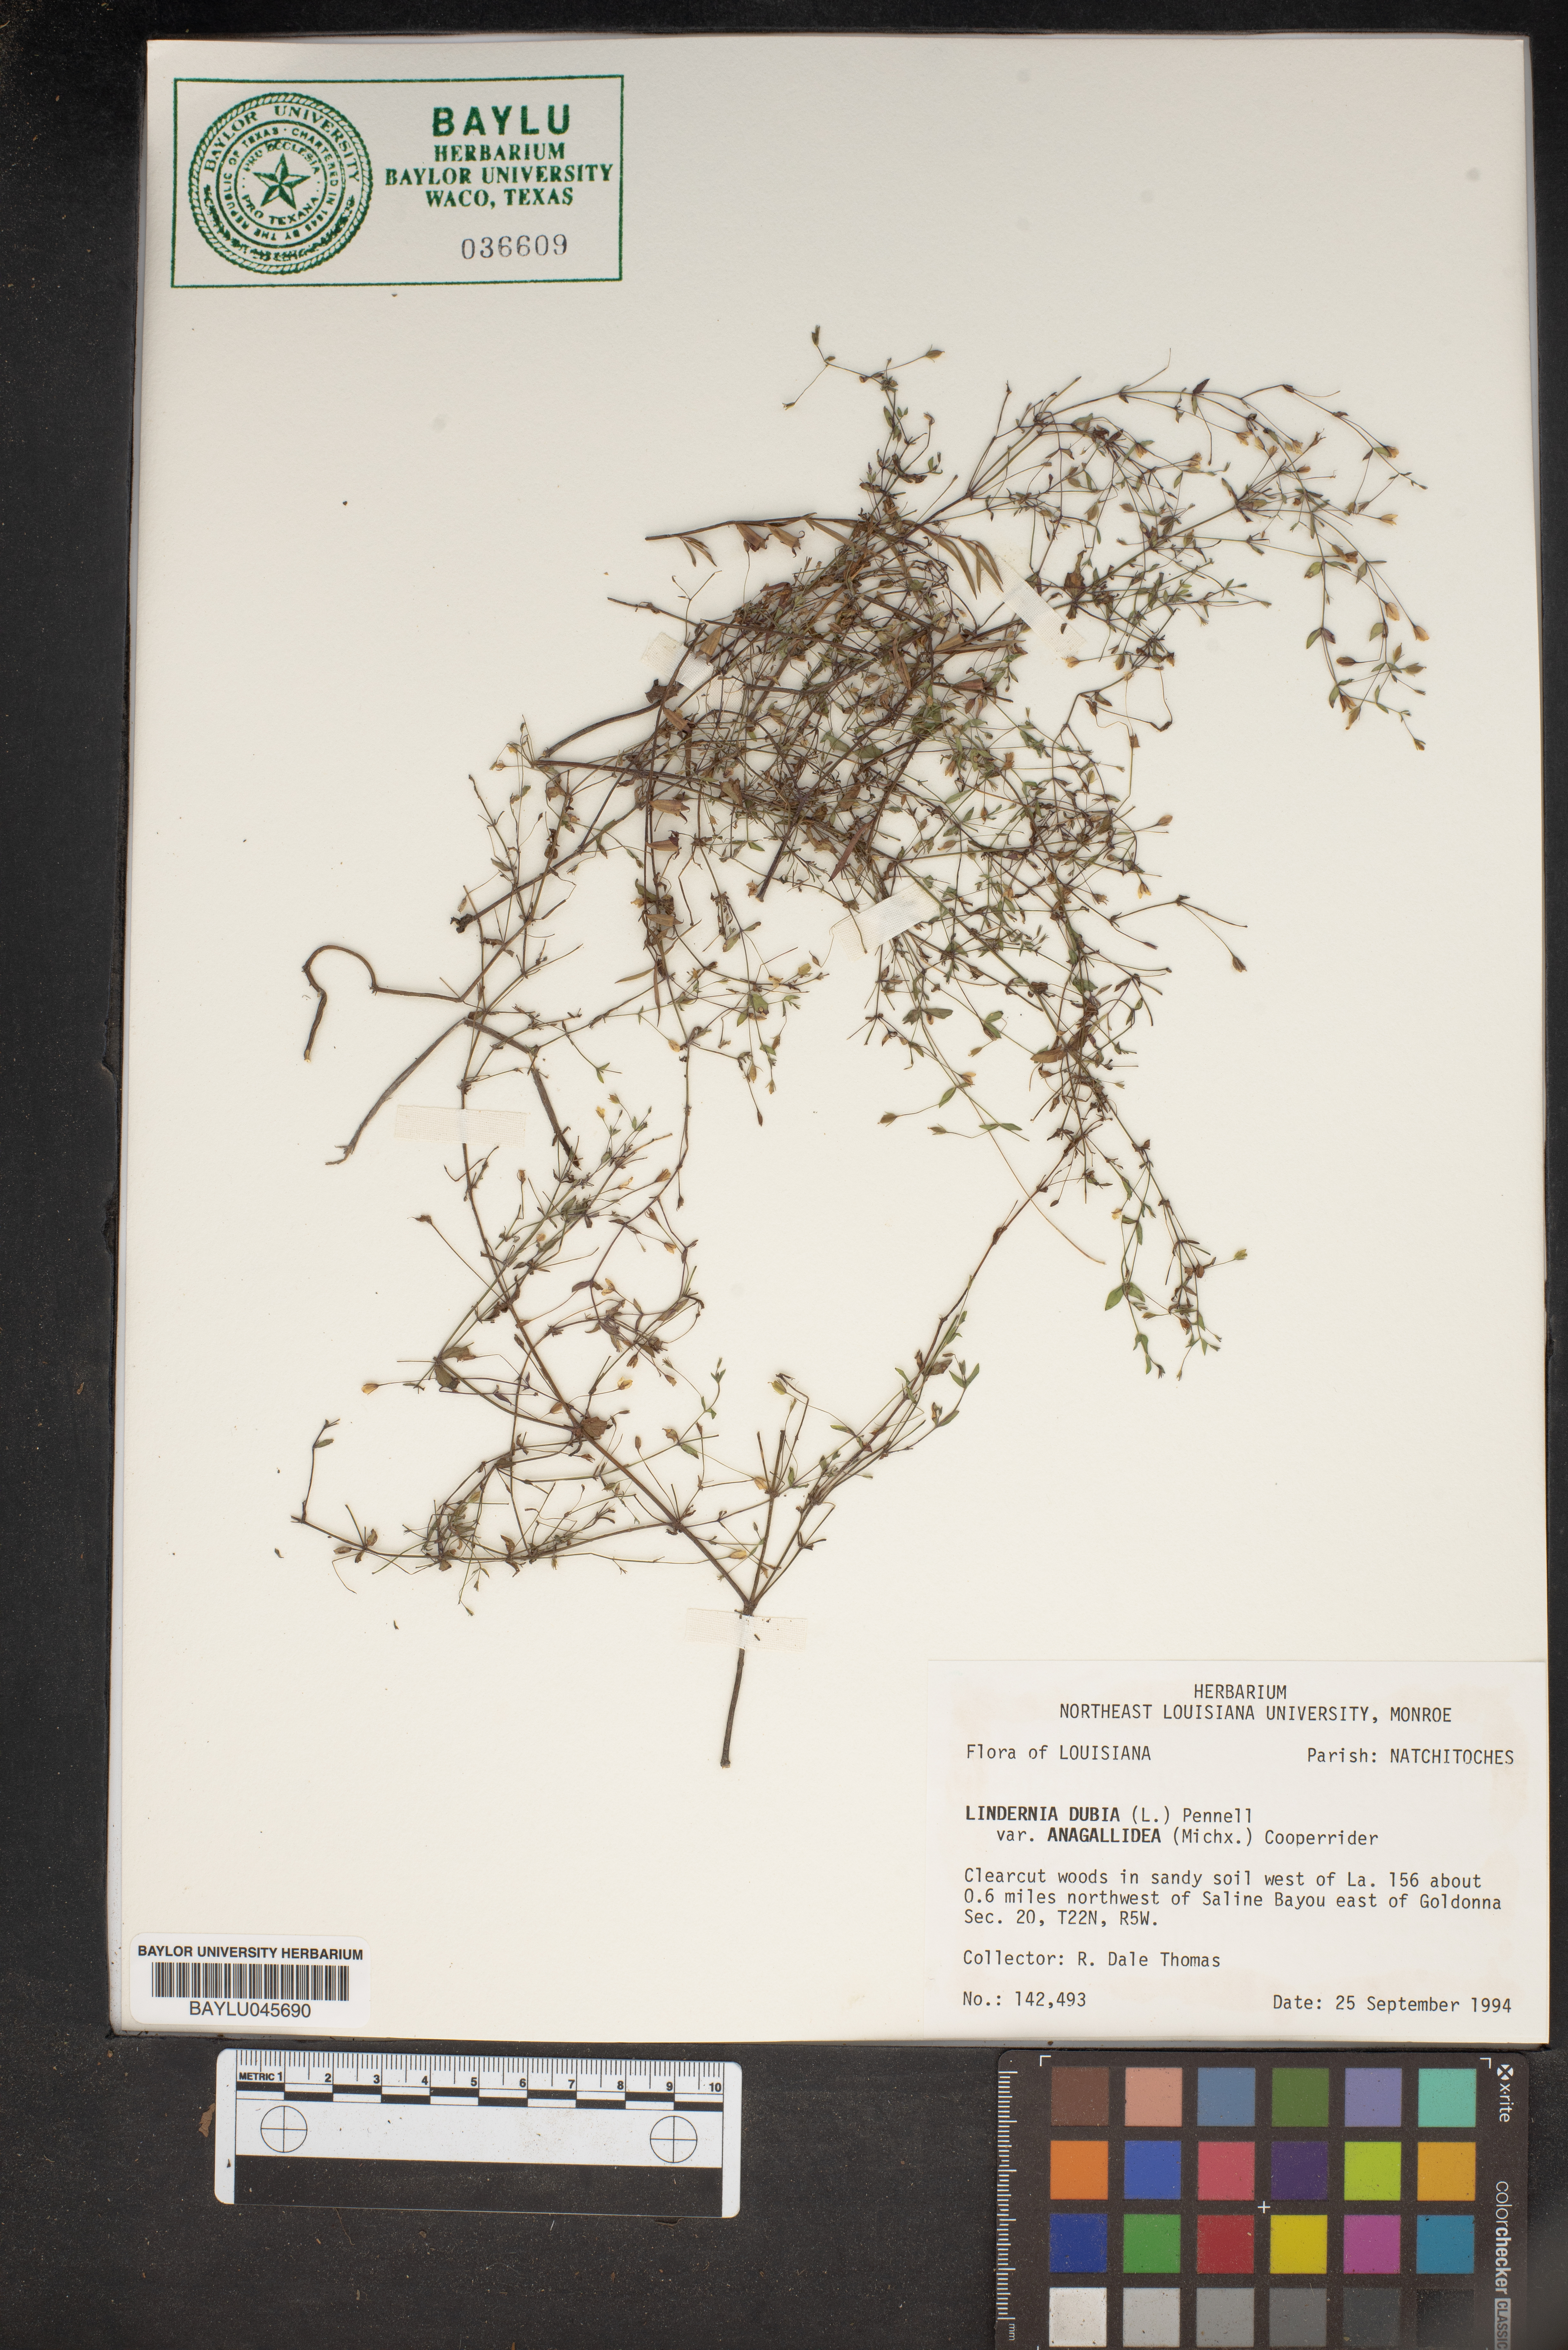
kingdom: Plantae
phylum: Tracheophyta
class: Magnoliopsida
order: Lamiales
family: Linderniaceae
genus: Lindernia
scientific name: Lindernia dubia
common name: Annual false pimpernel
